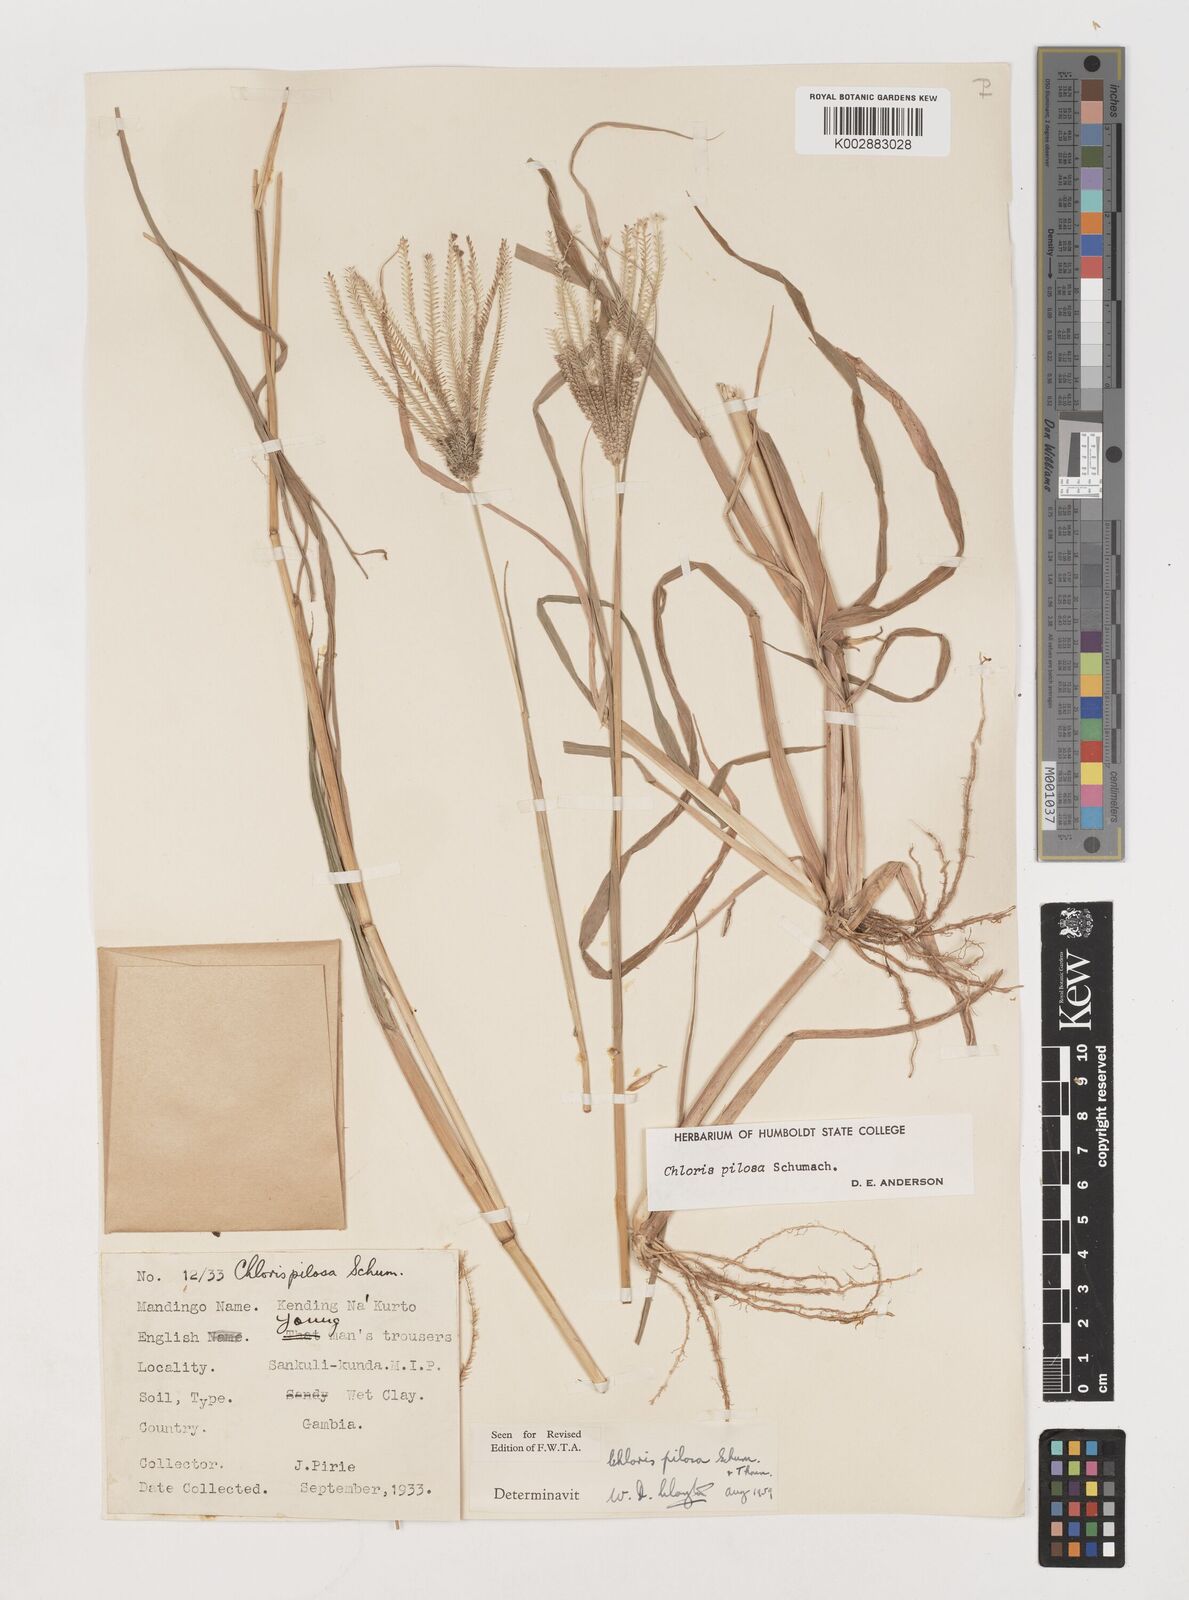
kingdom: Plantae
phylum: Tracheophyta
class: Liliopsida
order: Poales
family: Poaceae
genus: Chloris
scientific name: Chloris pilosa
